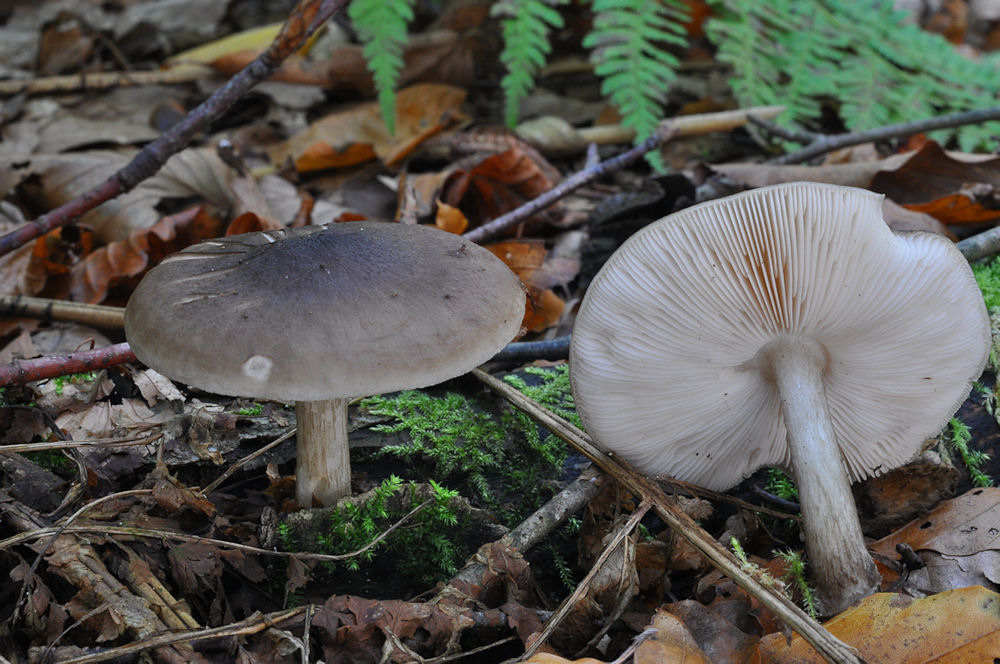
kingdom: Fungi
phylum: Basidiomycota
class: Agaricomycetes
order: Agaricales
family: Pluteaceae
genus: Pluteus
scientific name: Pluteus cervinus
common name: sodfarvet skærmhat
